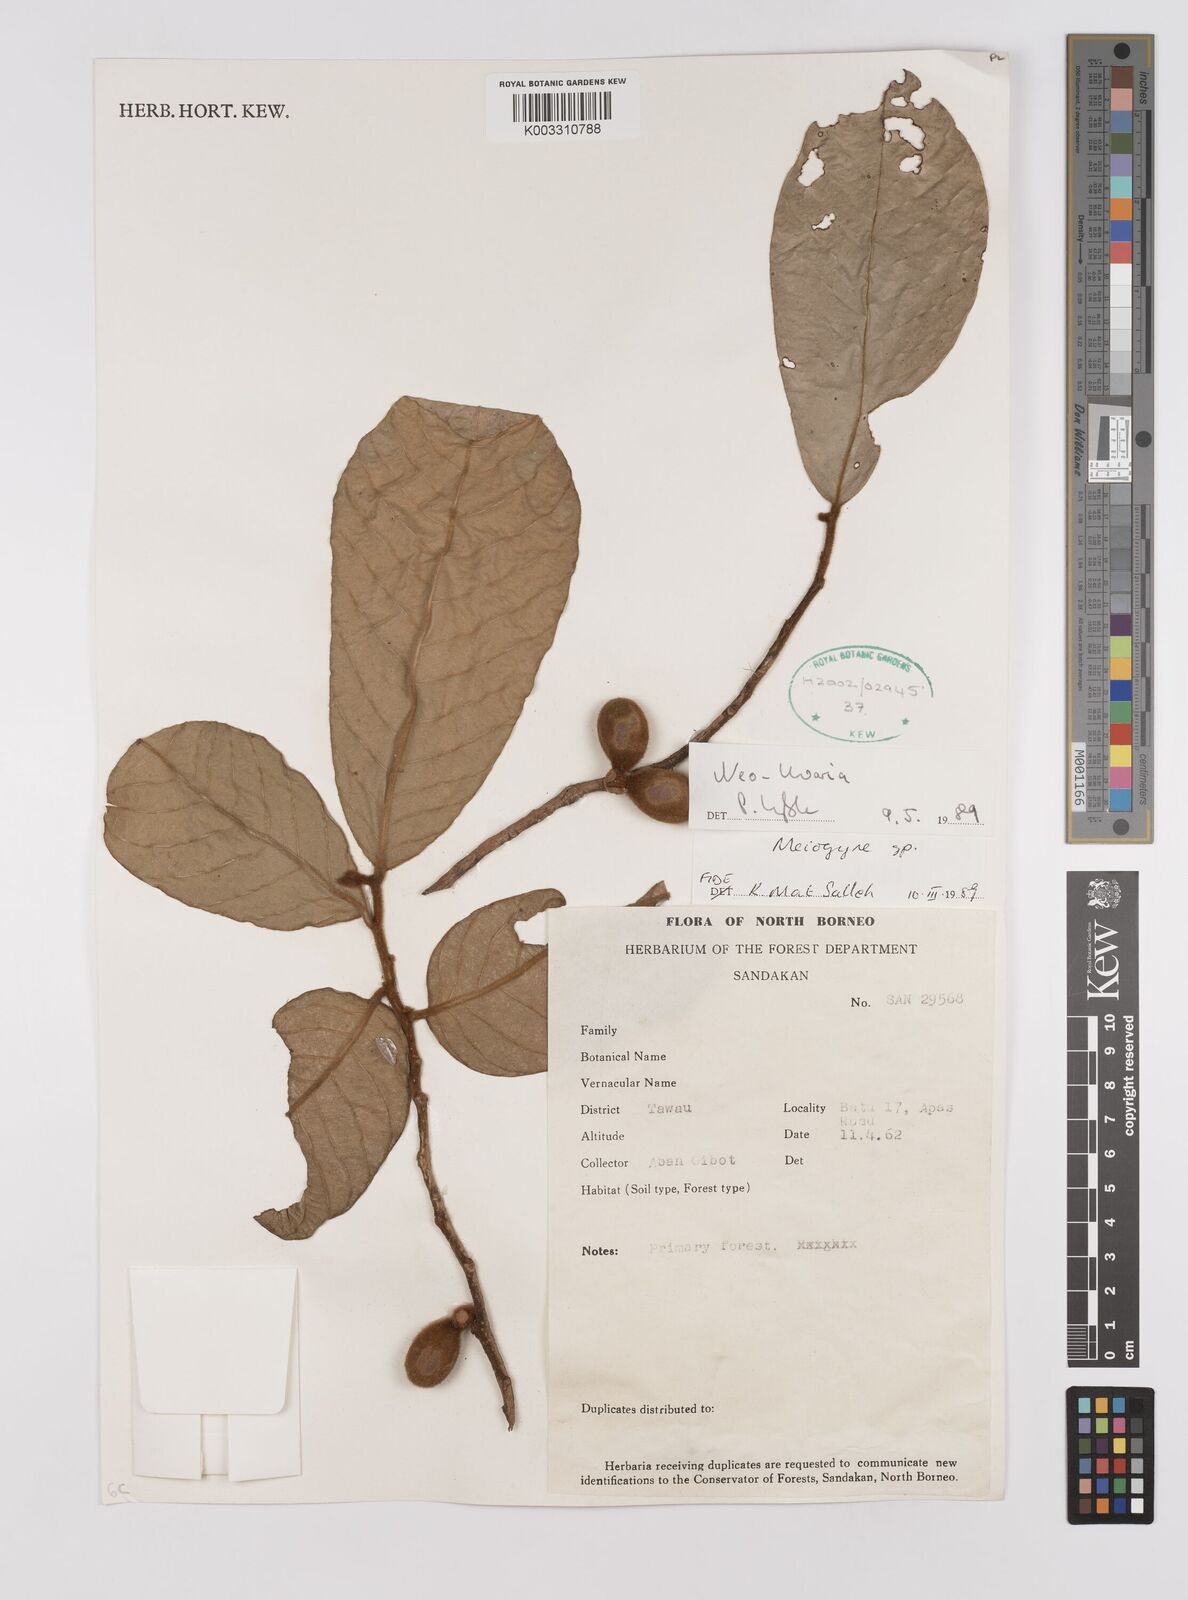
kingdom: Plantae
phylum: Tracheophyta
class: Magnoliopsida
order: Magnoliales
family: Annonaceae
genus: Neo-uvaria
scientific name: Neo-uvaria
